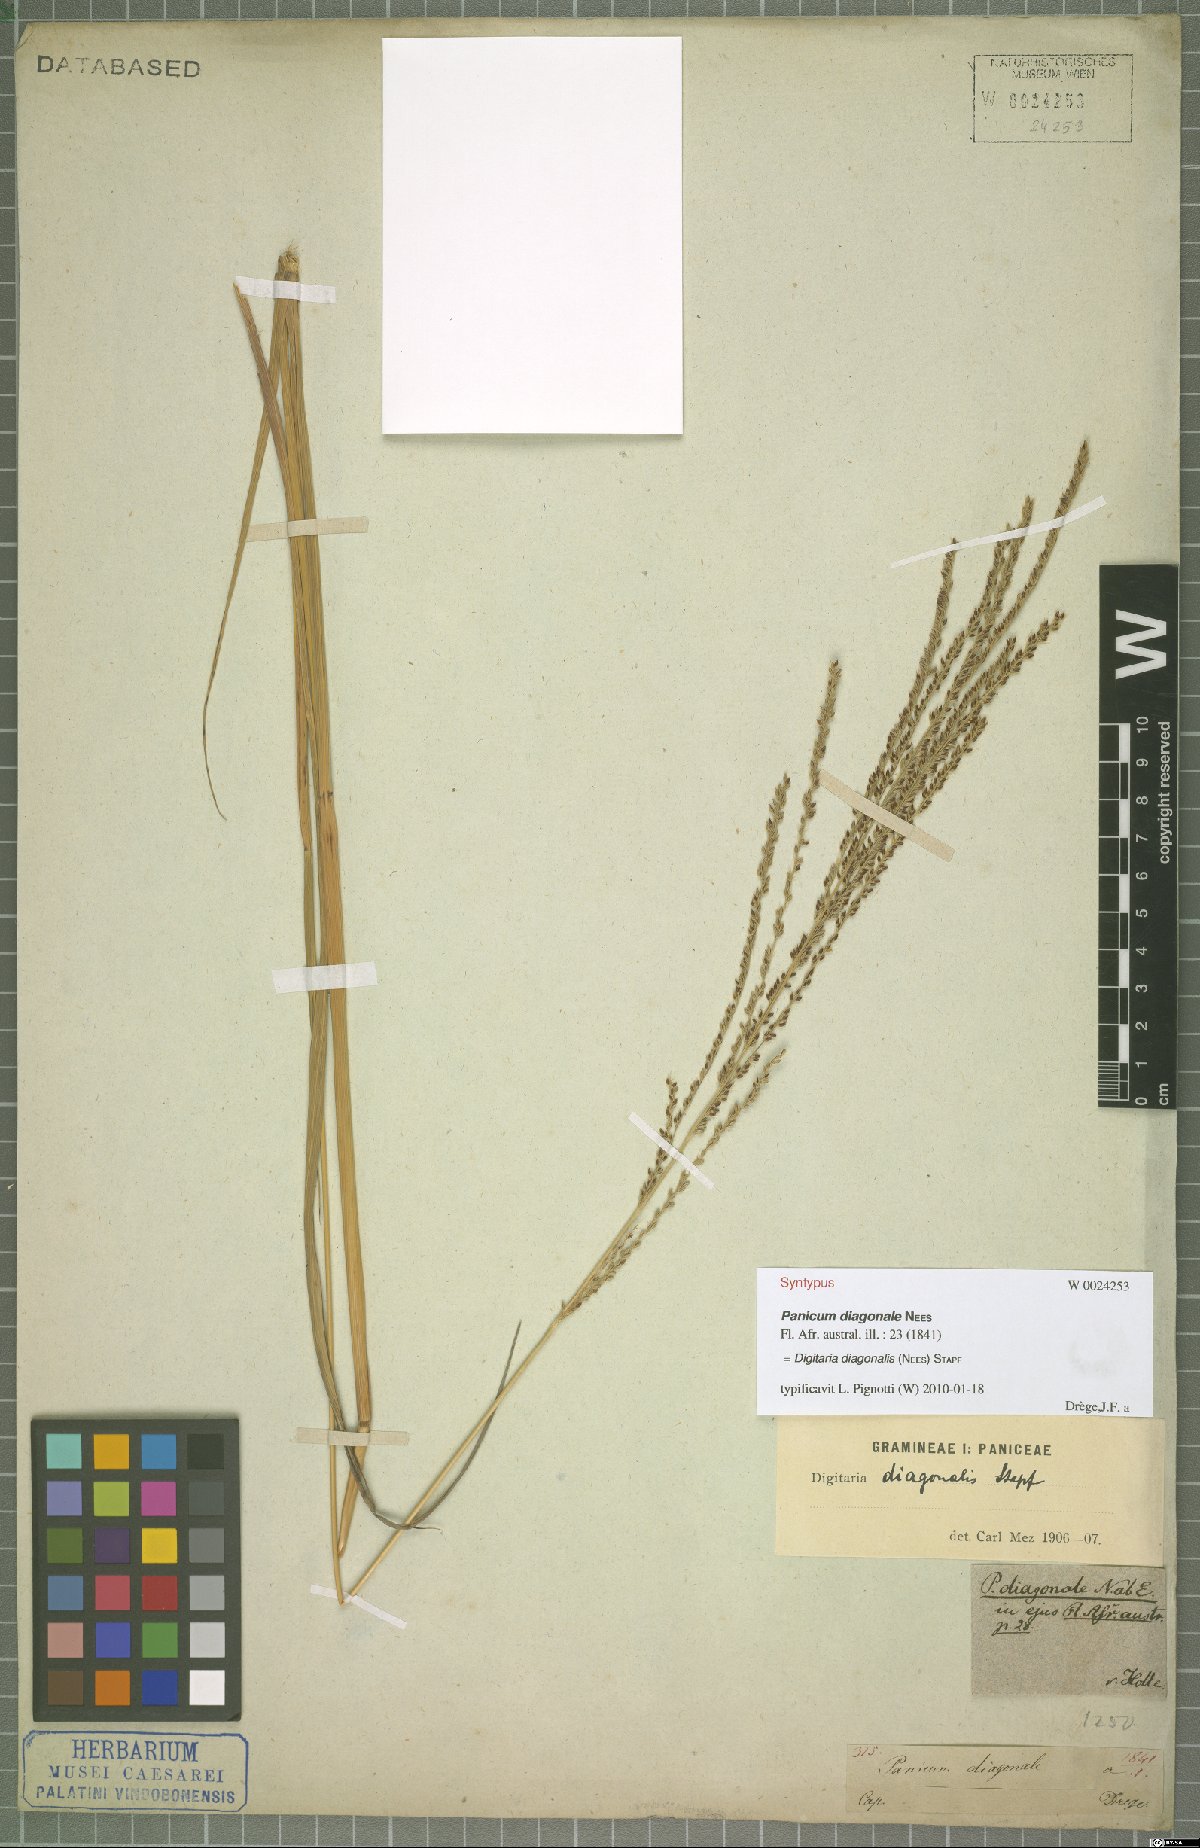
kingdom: Plantae
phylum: Tracheophyta
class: Liliopsida
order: Poales
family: Poaceae
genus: Digitaria
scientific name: Digitaria diagonalis
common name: Brown-seed finger grass
